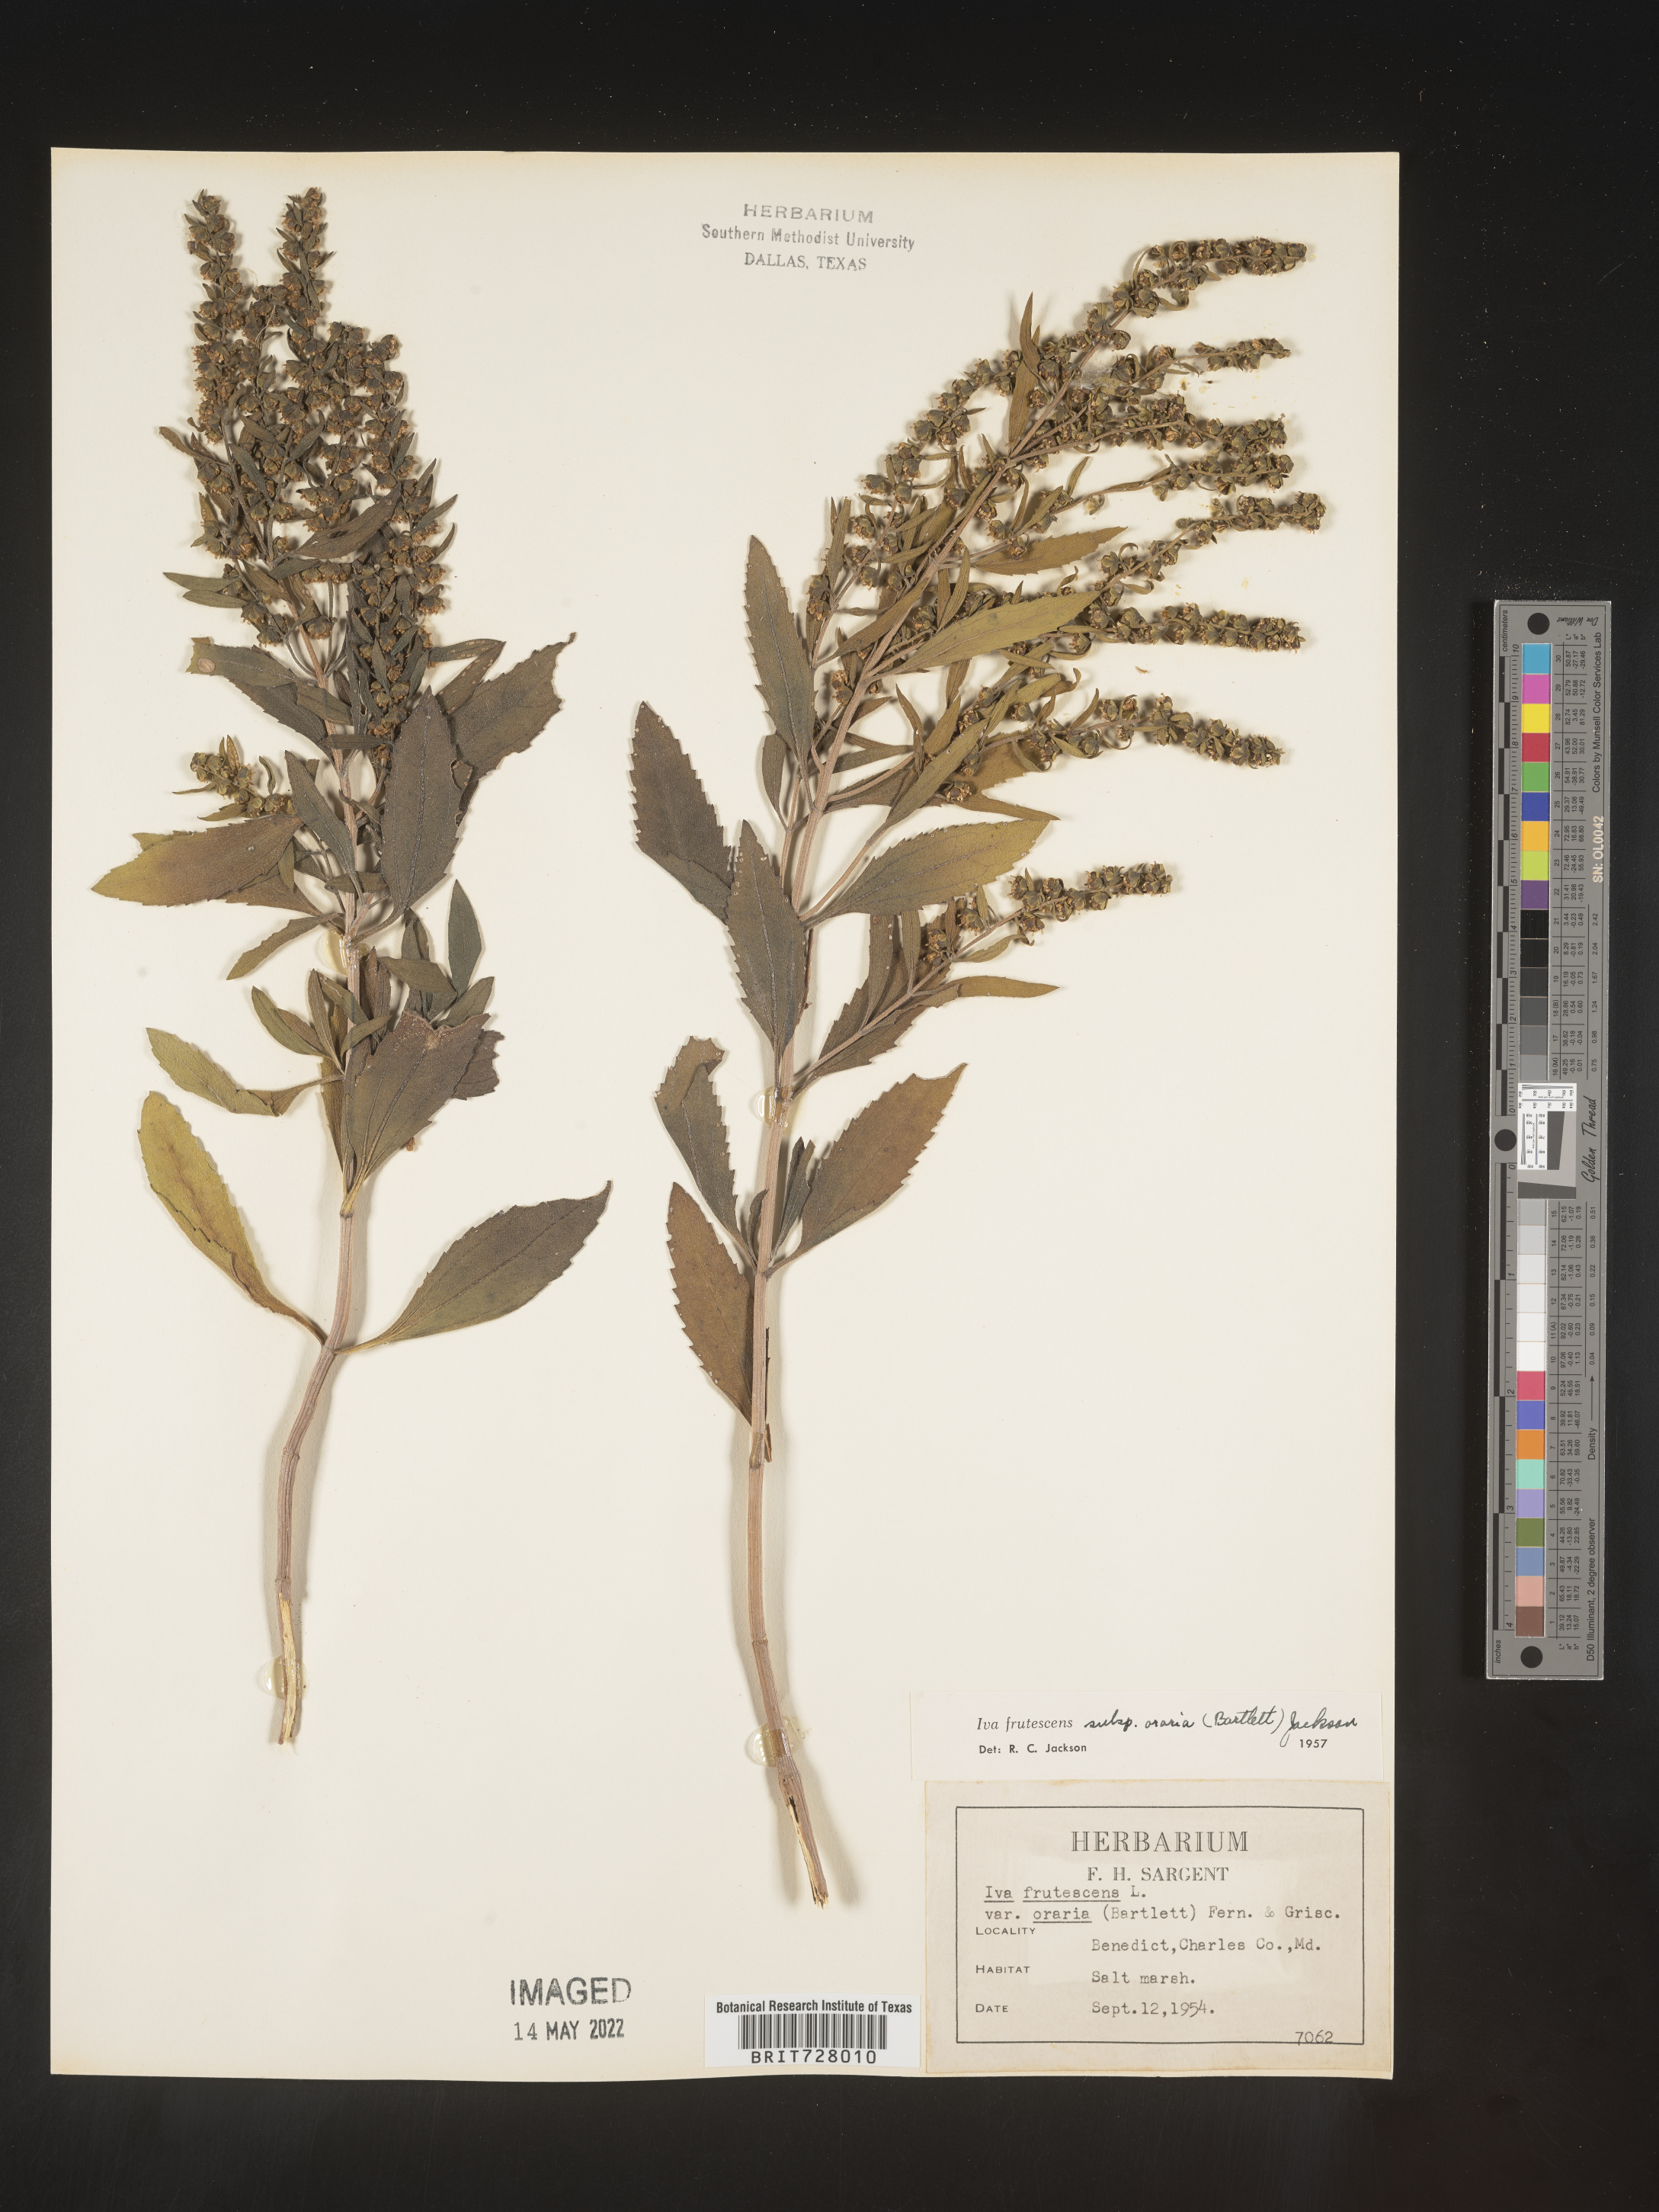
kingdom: Plantae
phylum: Tracheophyta
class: Magnoliopsida
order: Asterales
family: Asteraceae
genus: Iva
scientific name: Iva frutescens
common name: Big-leaved marsh-elder
